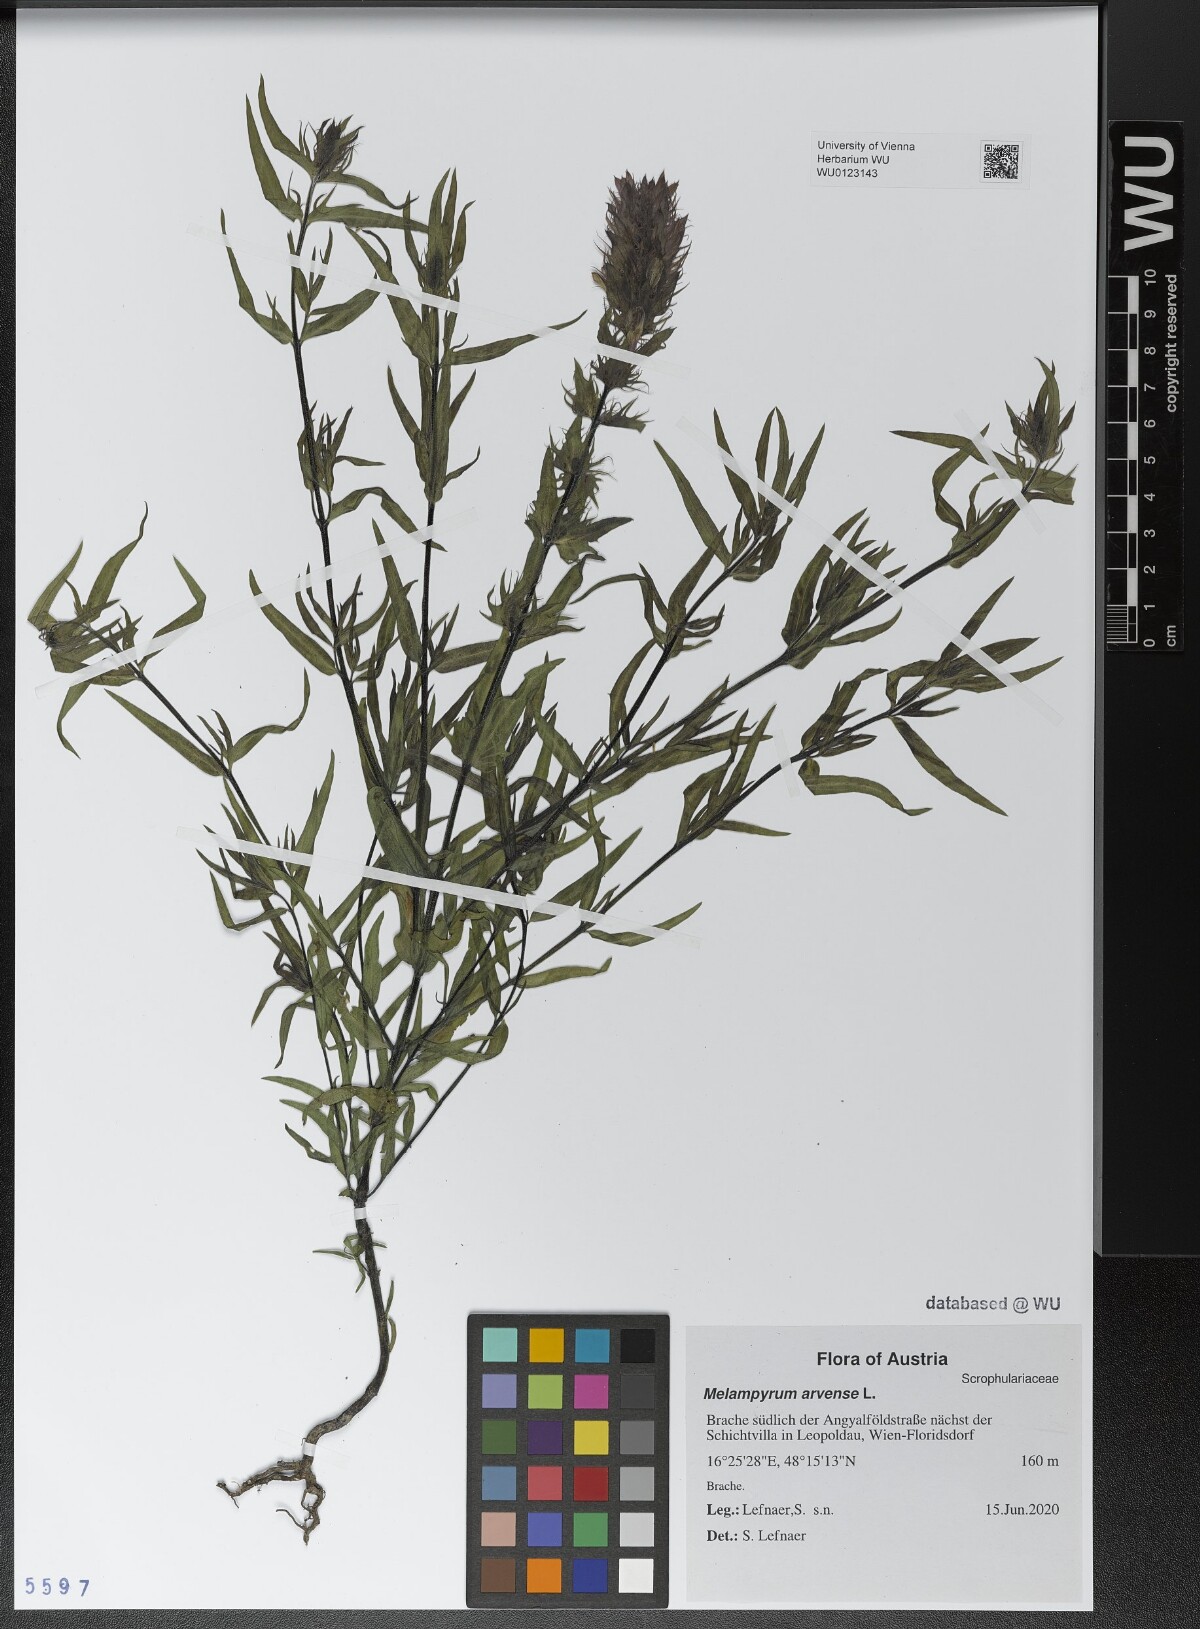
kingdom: Plantae
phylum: Tracheophyta
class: Magnoliopsida
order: Lamiales
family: Orobanchaceae
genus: Melampyrum
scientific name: Melampyrum arvense
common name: Field cow-wheat
